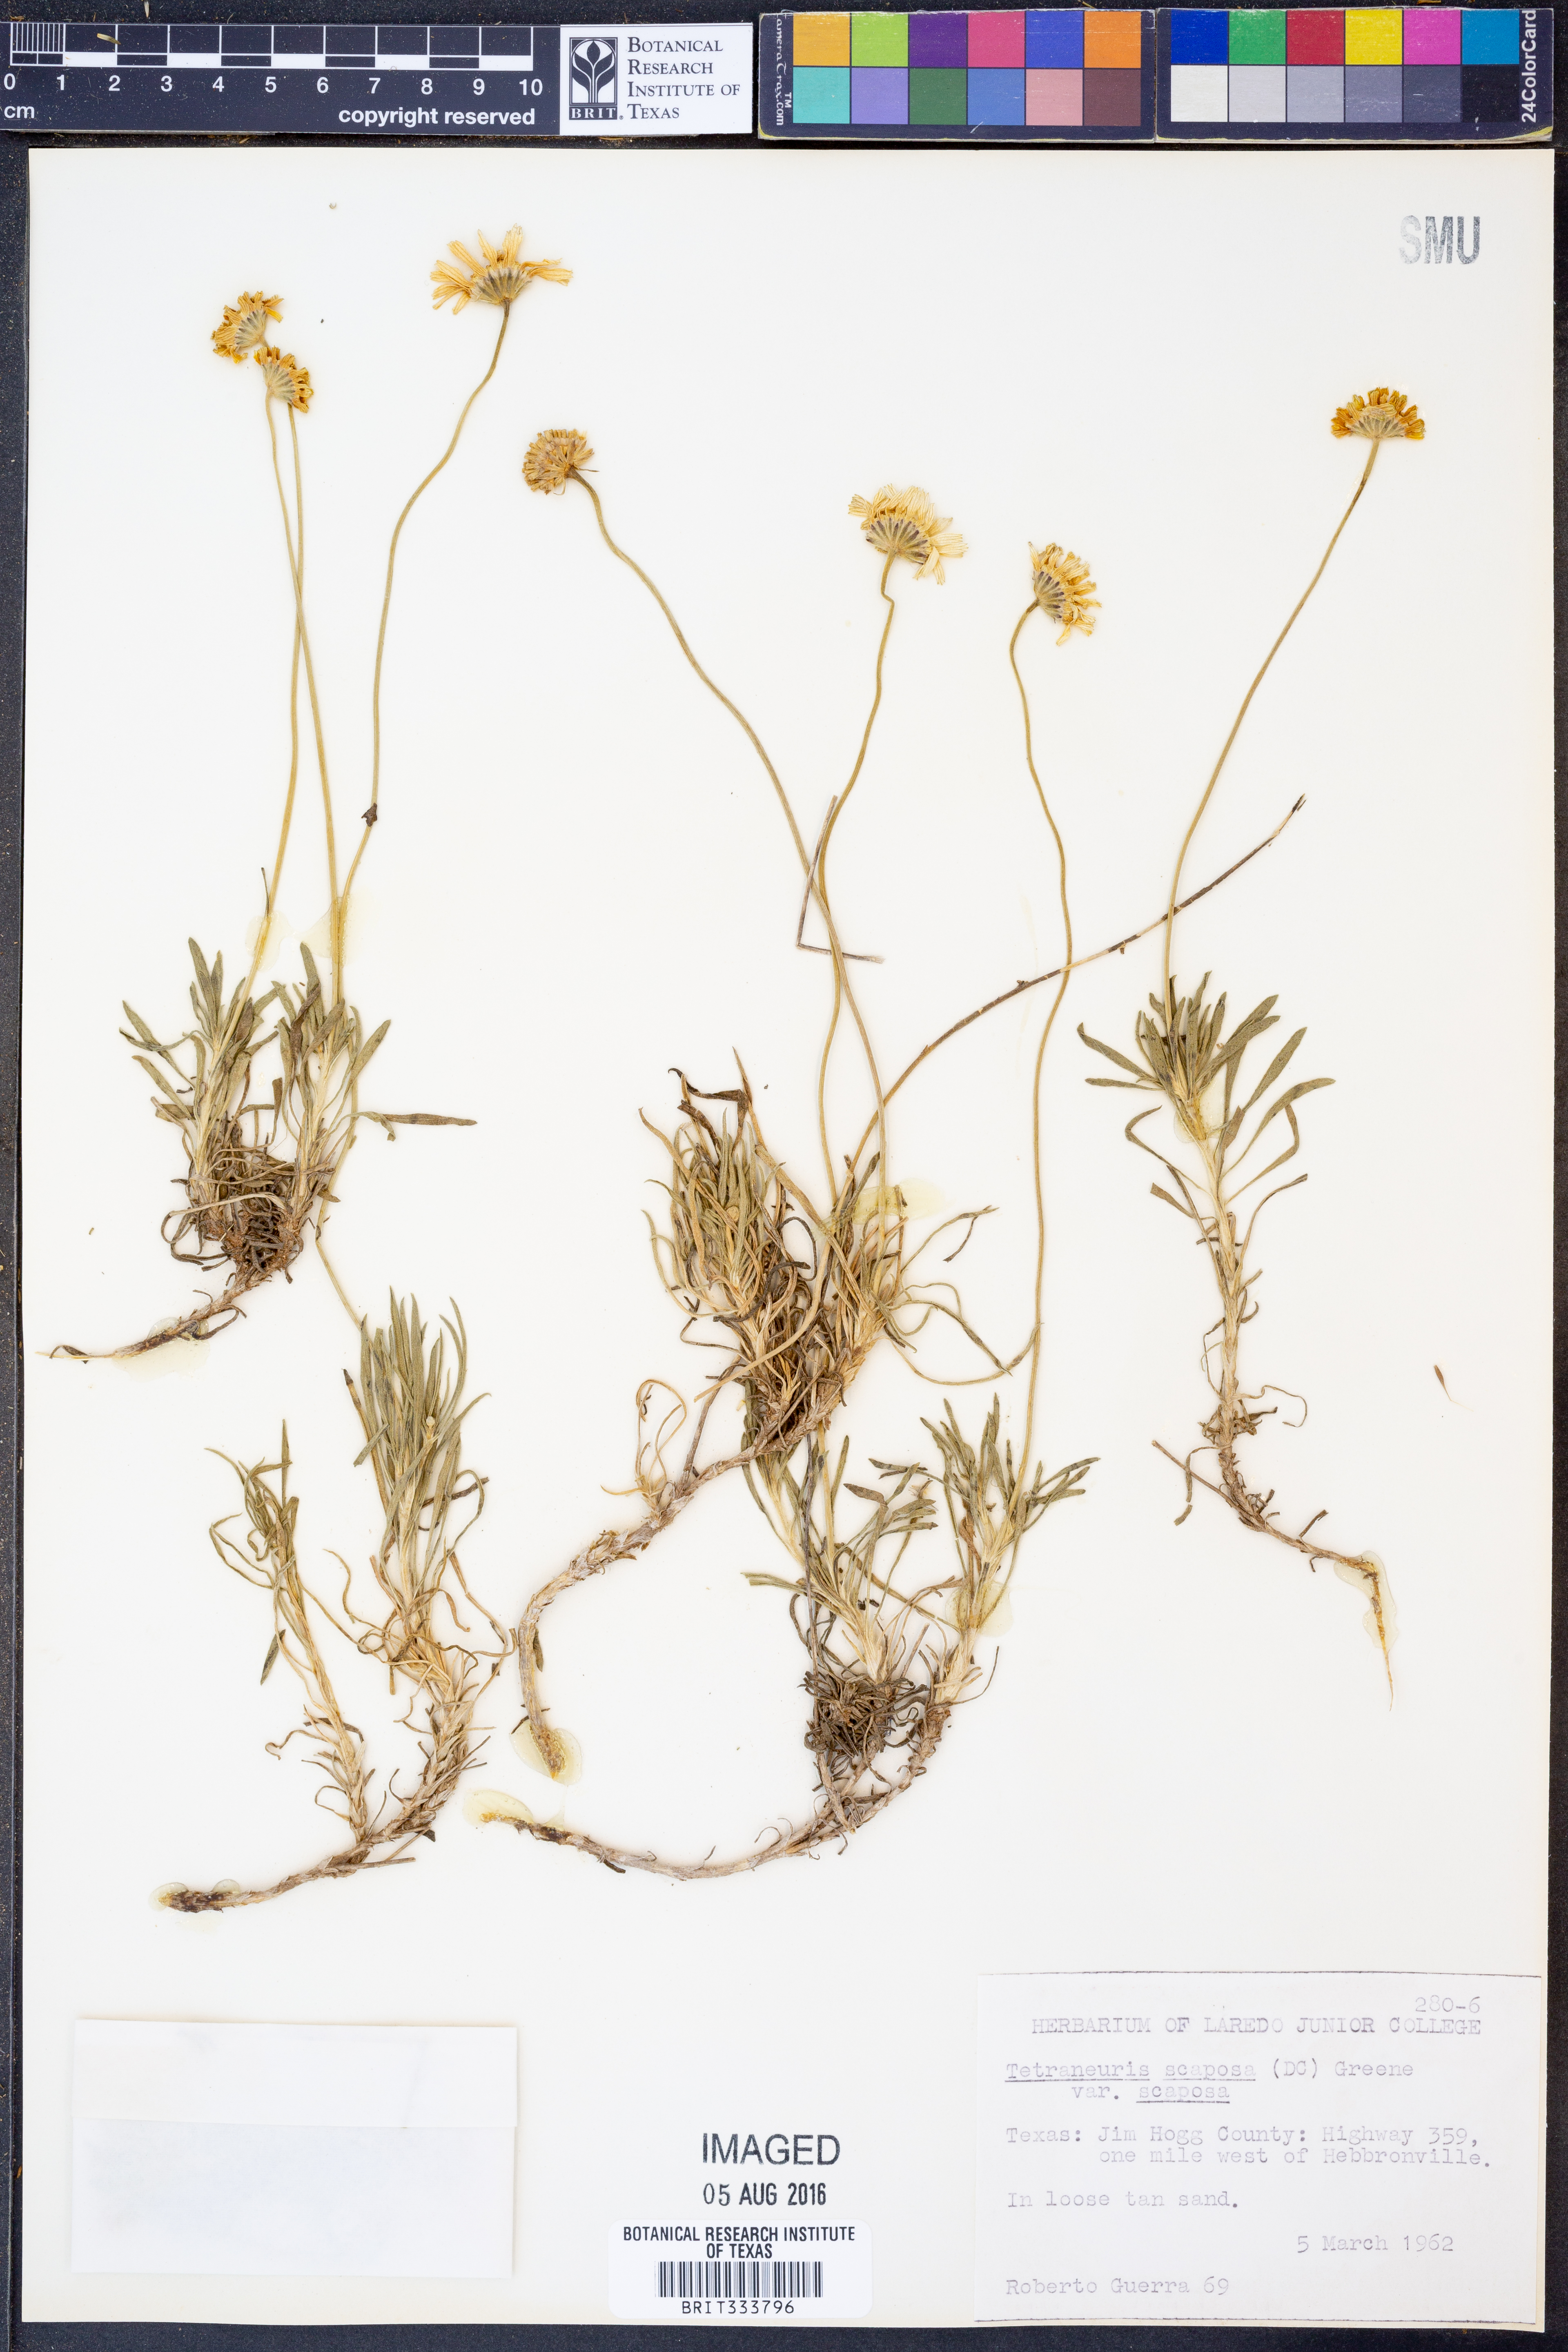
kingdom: Plantae
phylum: Tracheophyta
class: Magnoliopsida
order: Asterales
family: Asteraceae
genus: Tetraneuris
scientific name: Tetraneuris scaposa
